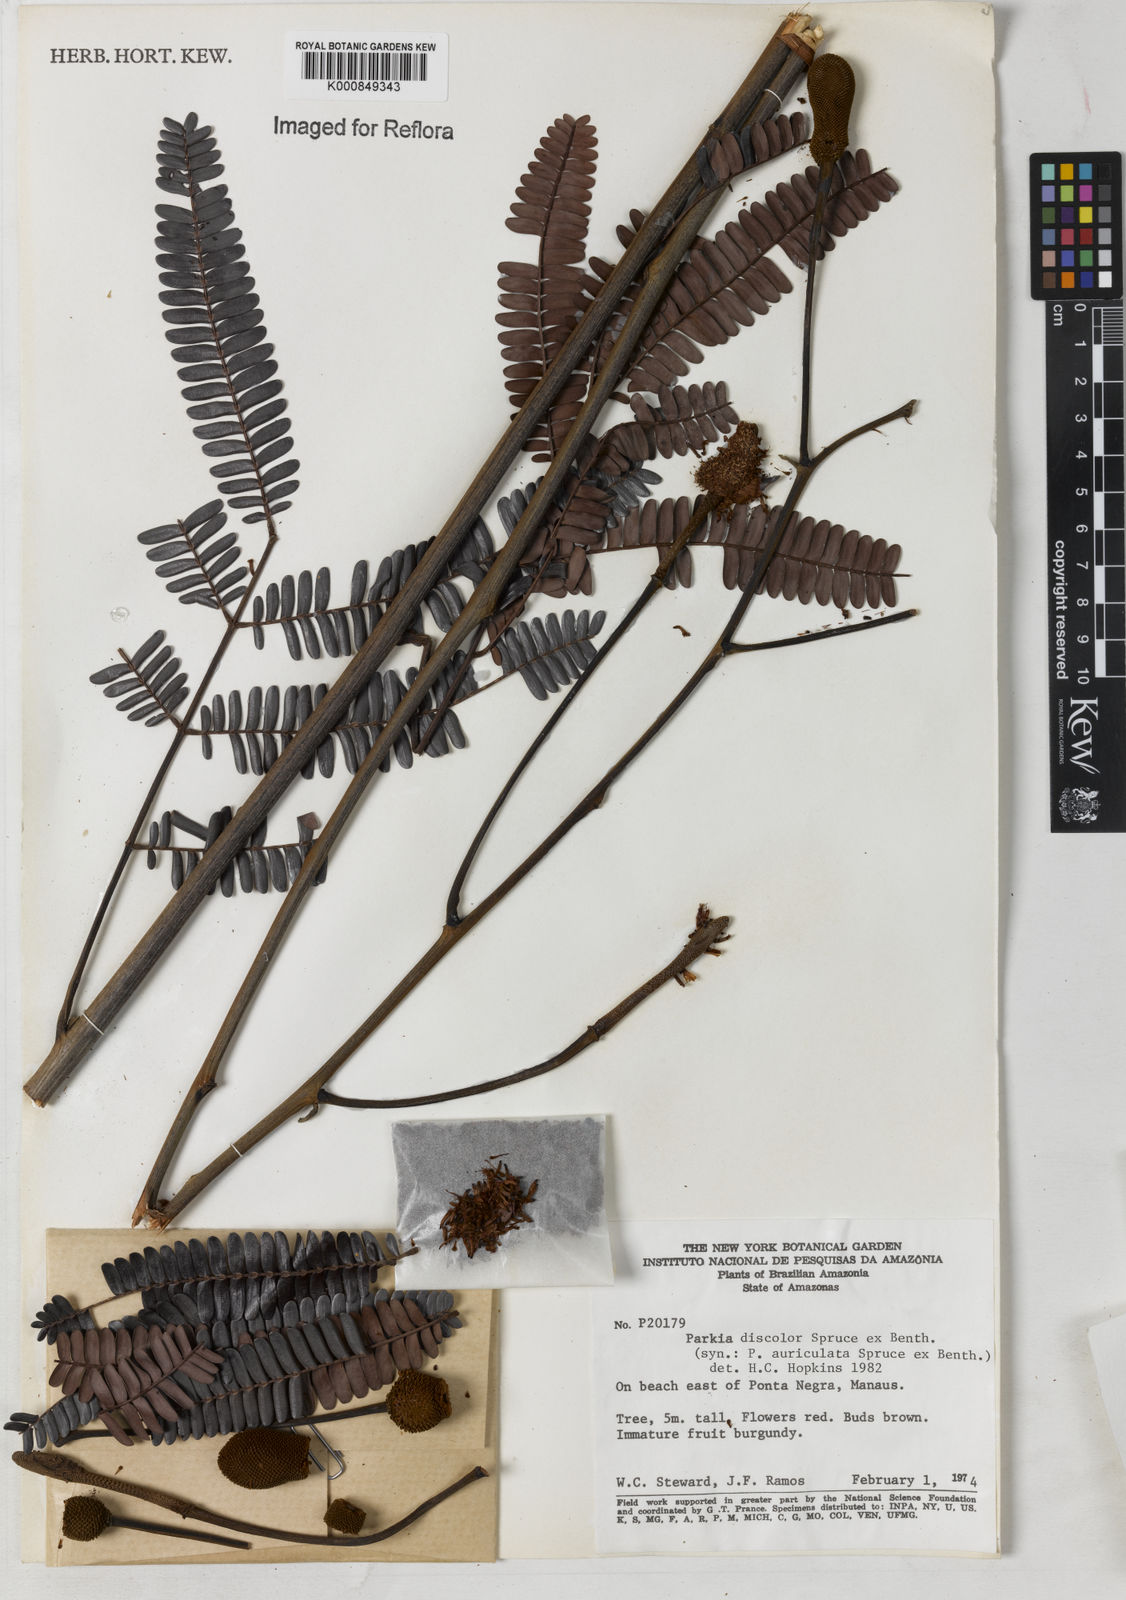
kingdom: Plantae
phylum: Tracheophyta
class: Magnoliopsida
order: Fabales
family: Fabaceae
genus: Parkia
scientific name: Parkia discolor
